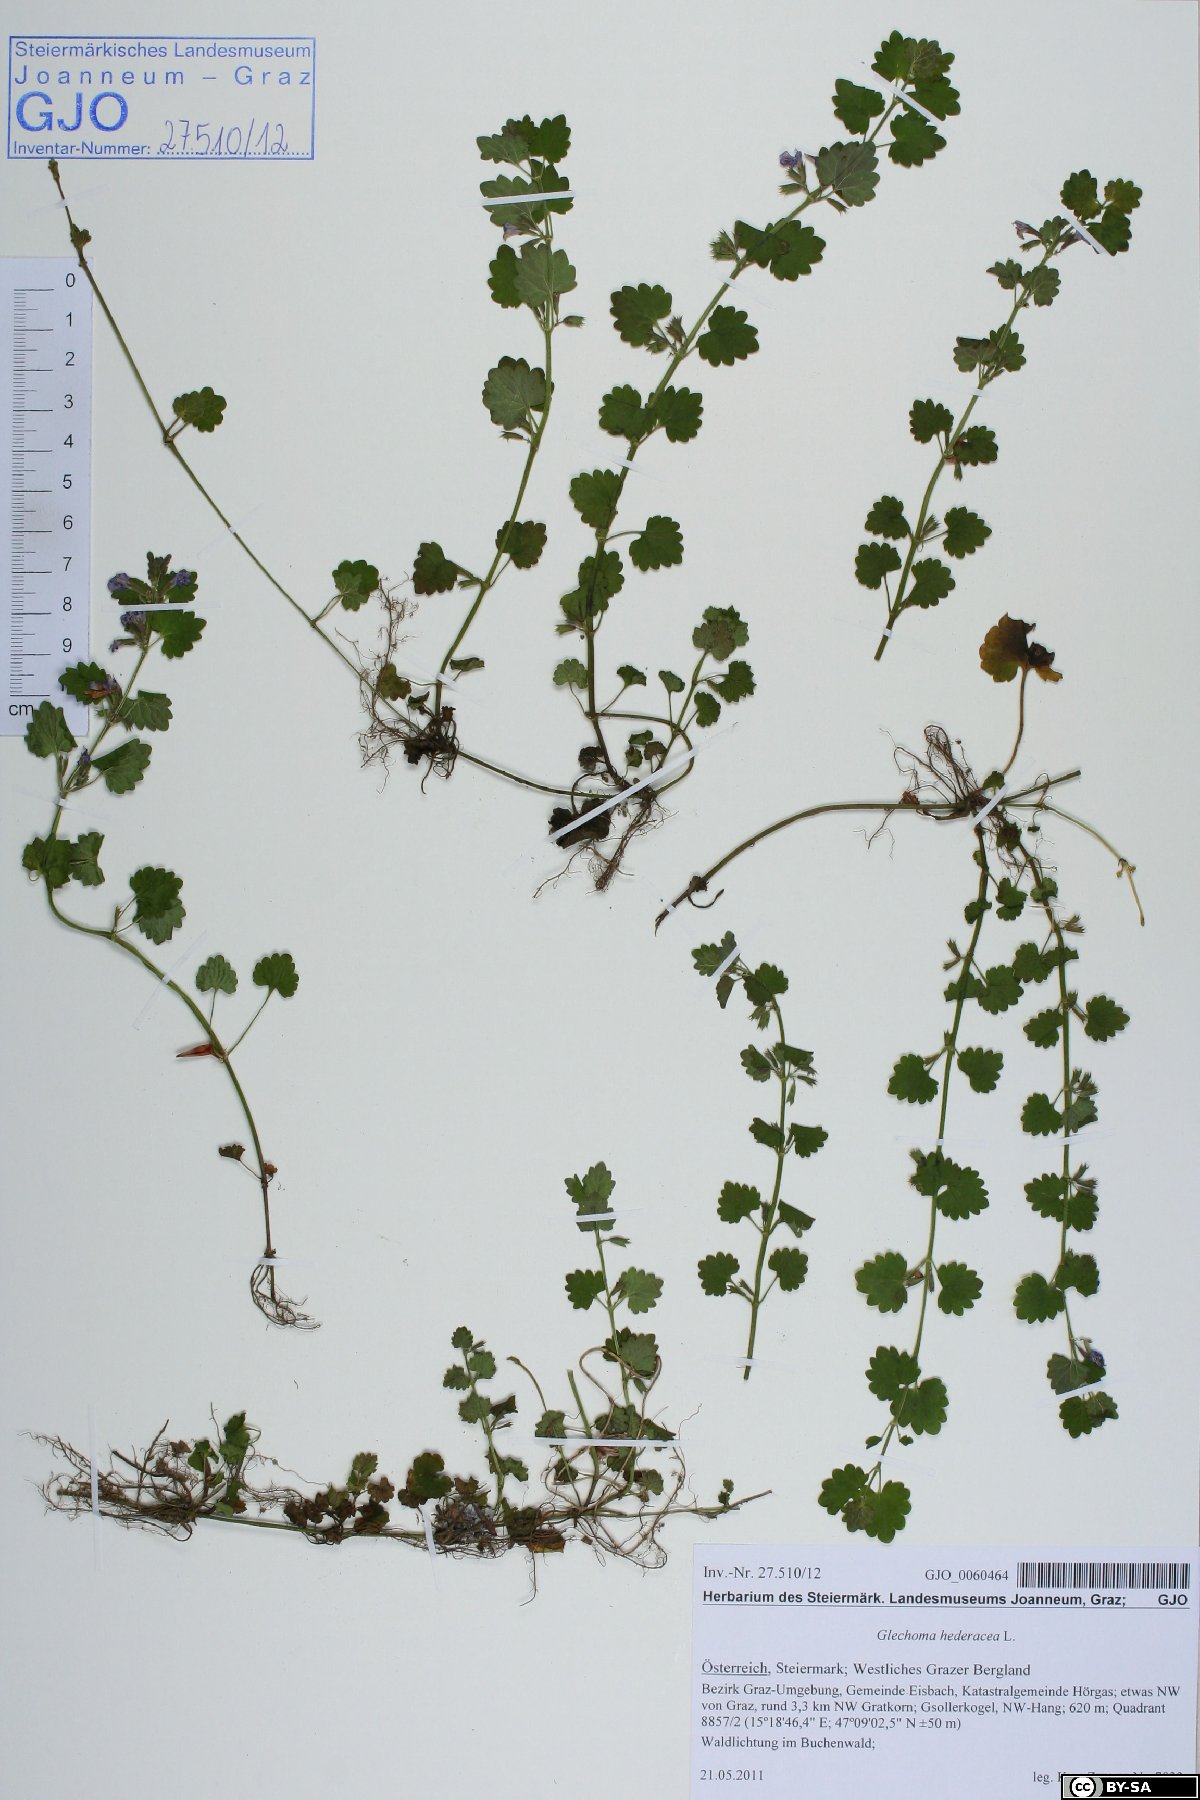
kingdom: Plantae
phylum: Tracheophyta
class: Magnoliopsida
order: Lamiales
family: Lamiaceae
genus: Glechoma
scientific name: Glechoma hederacea
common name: Ground ivy
